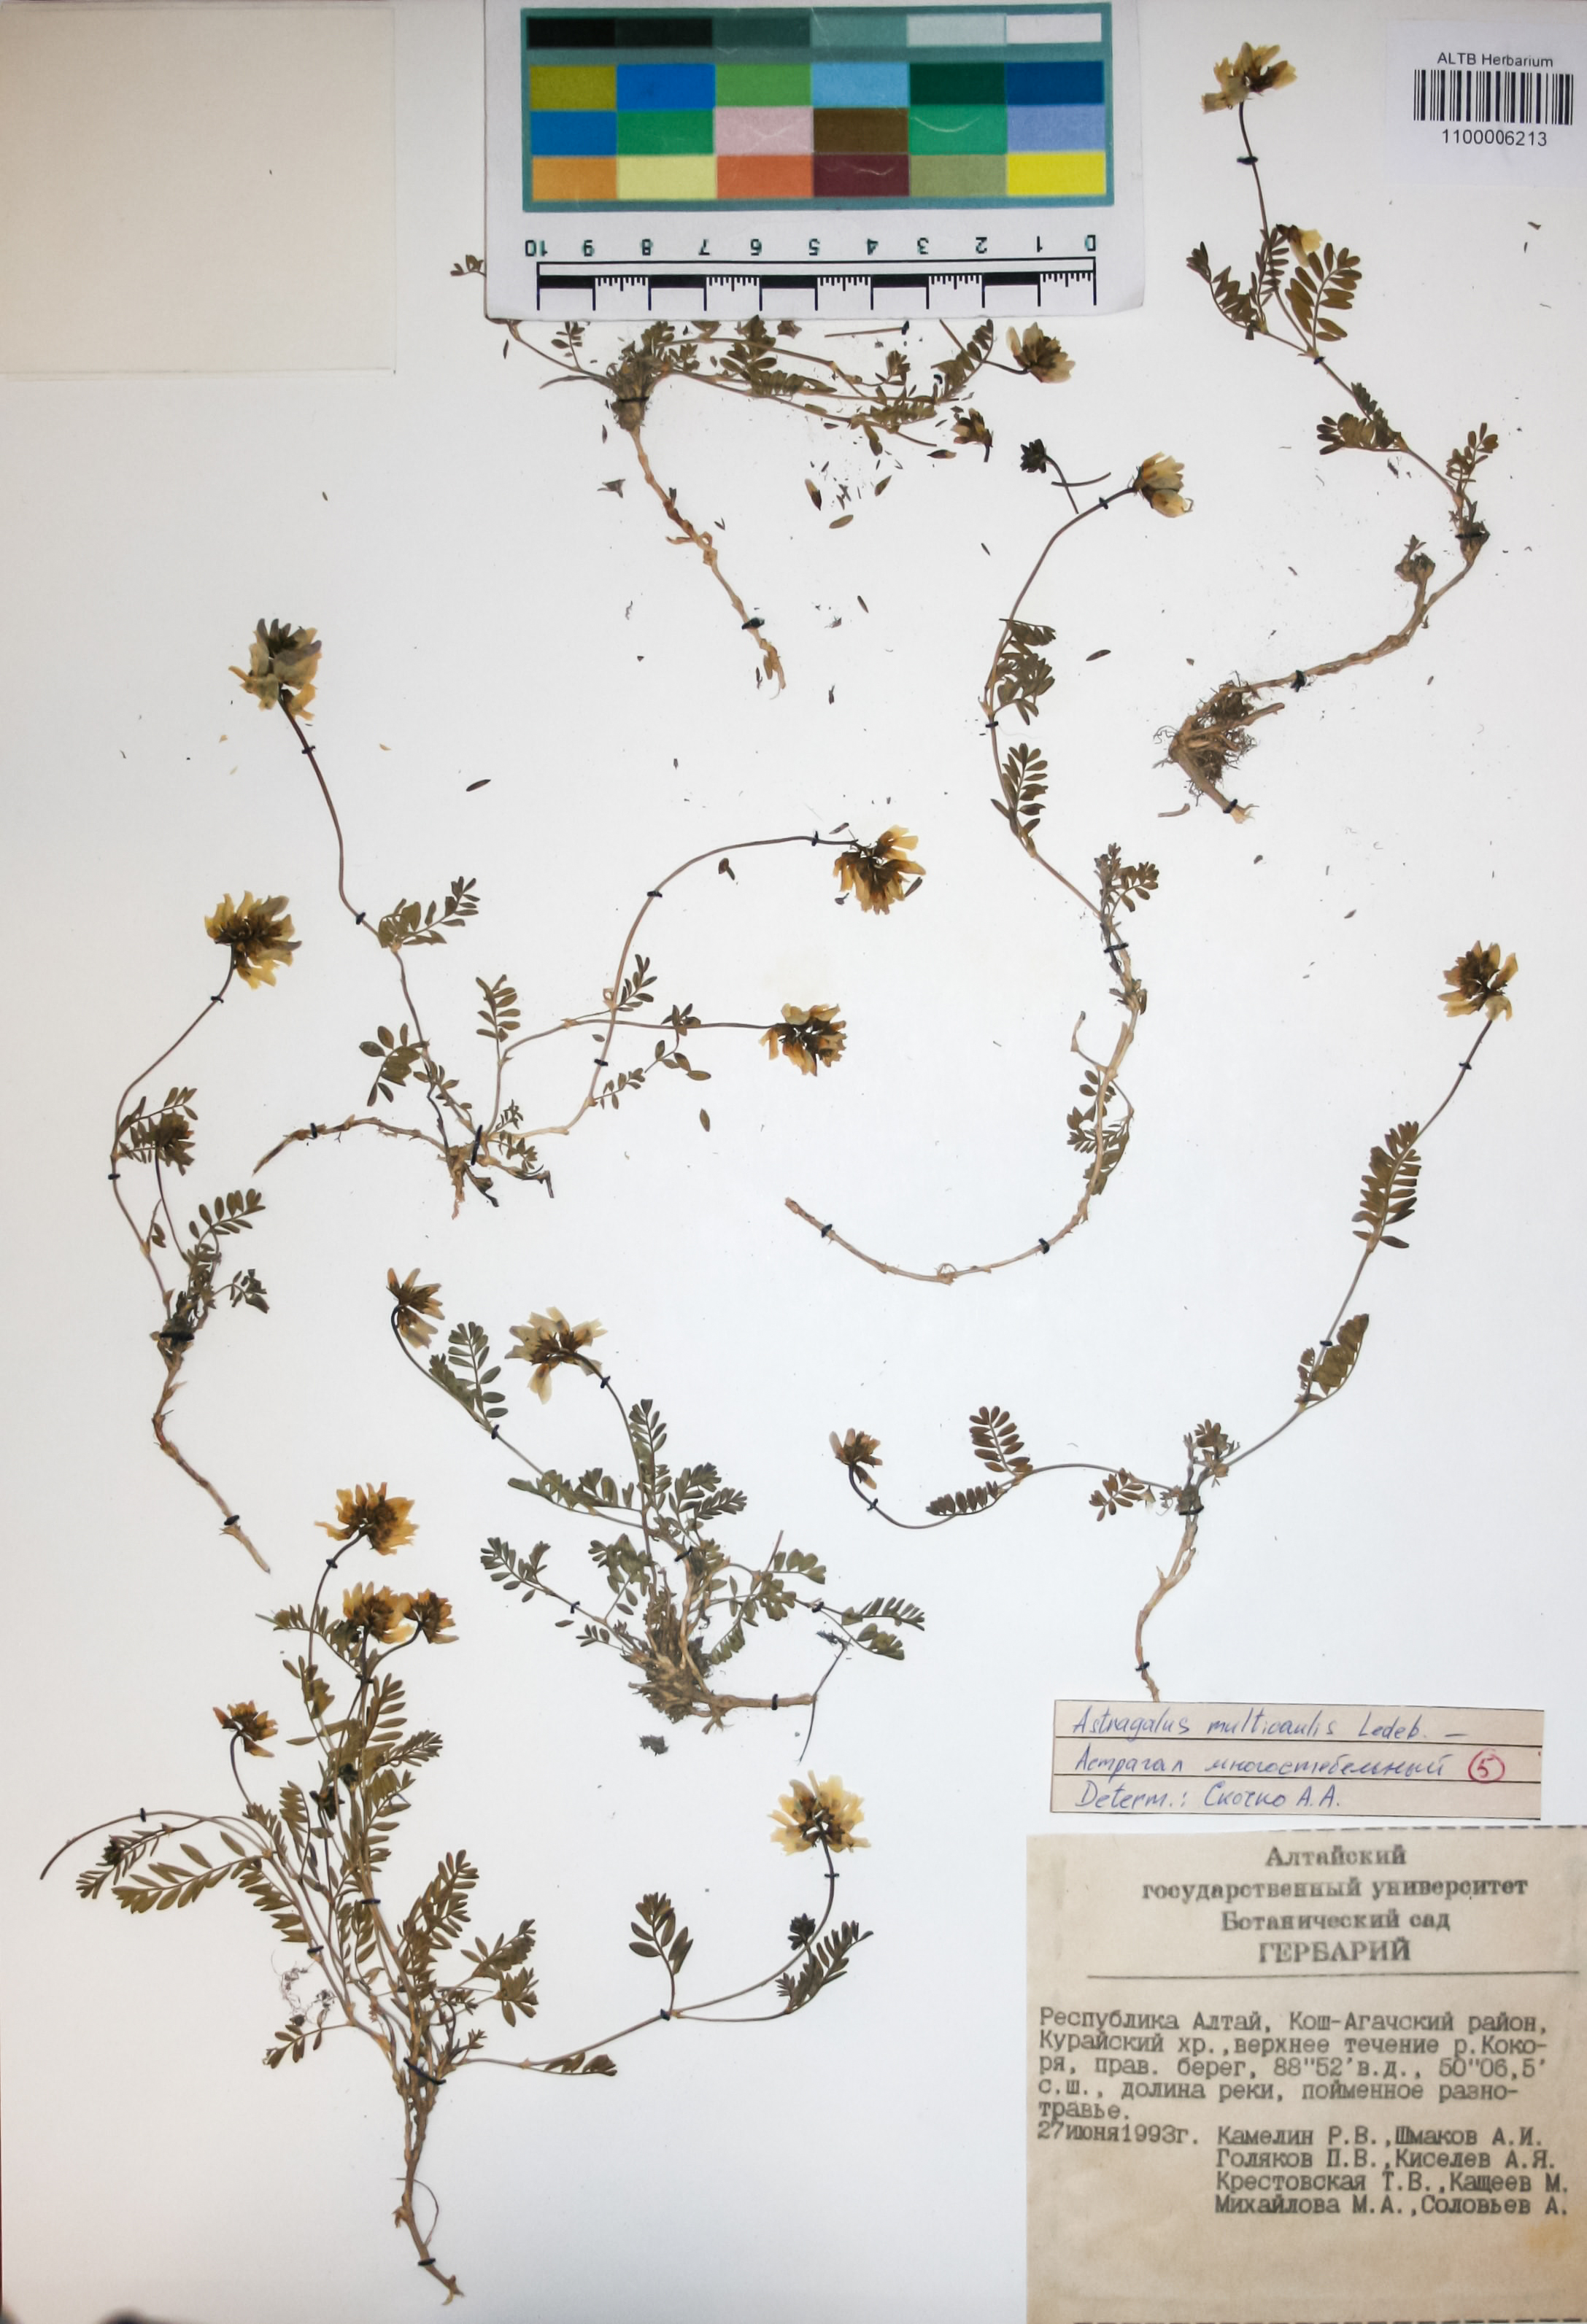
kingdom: Plantae
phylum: Tracheophyta
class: Magnoliopsida
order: Fabales
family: Fabaceae
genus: Astragalus
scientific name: Astragalus leptostachys
